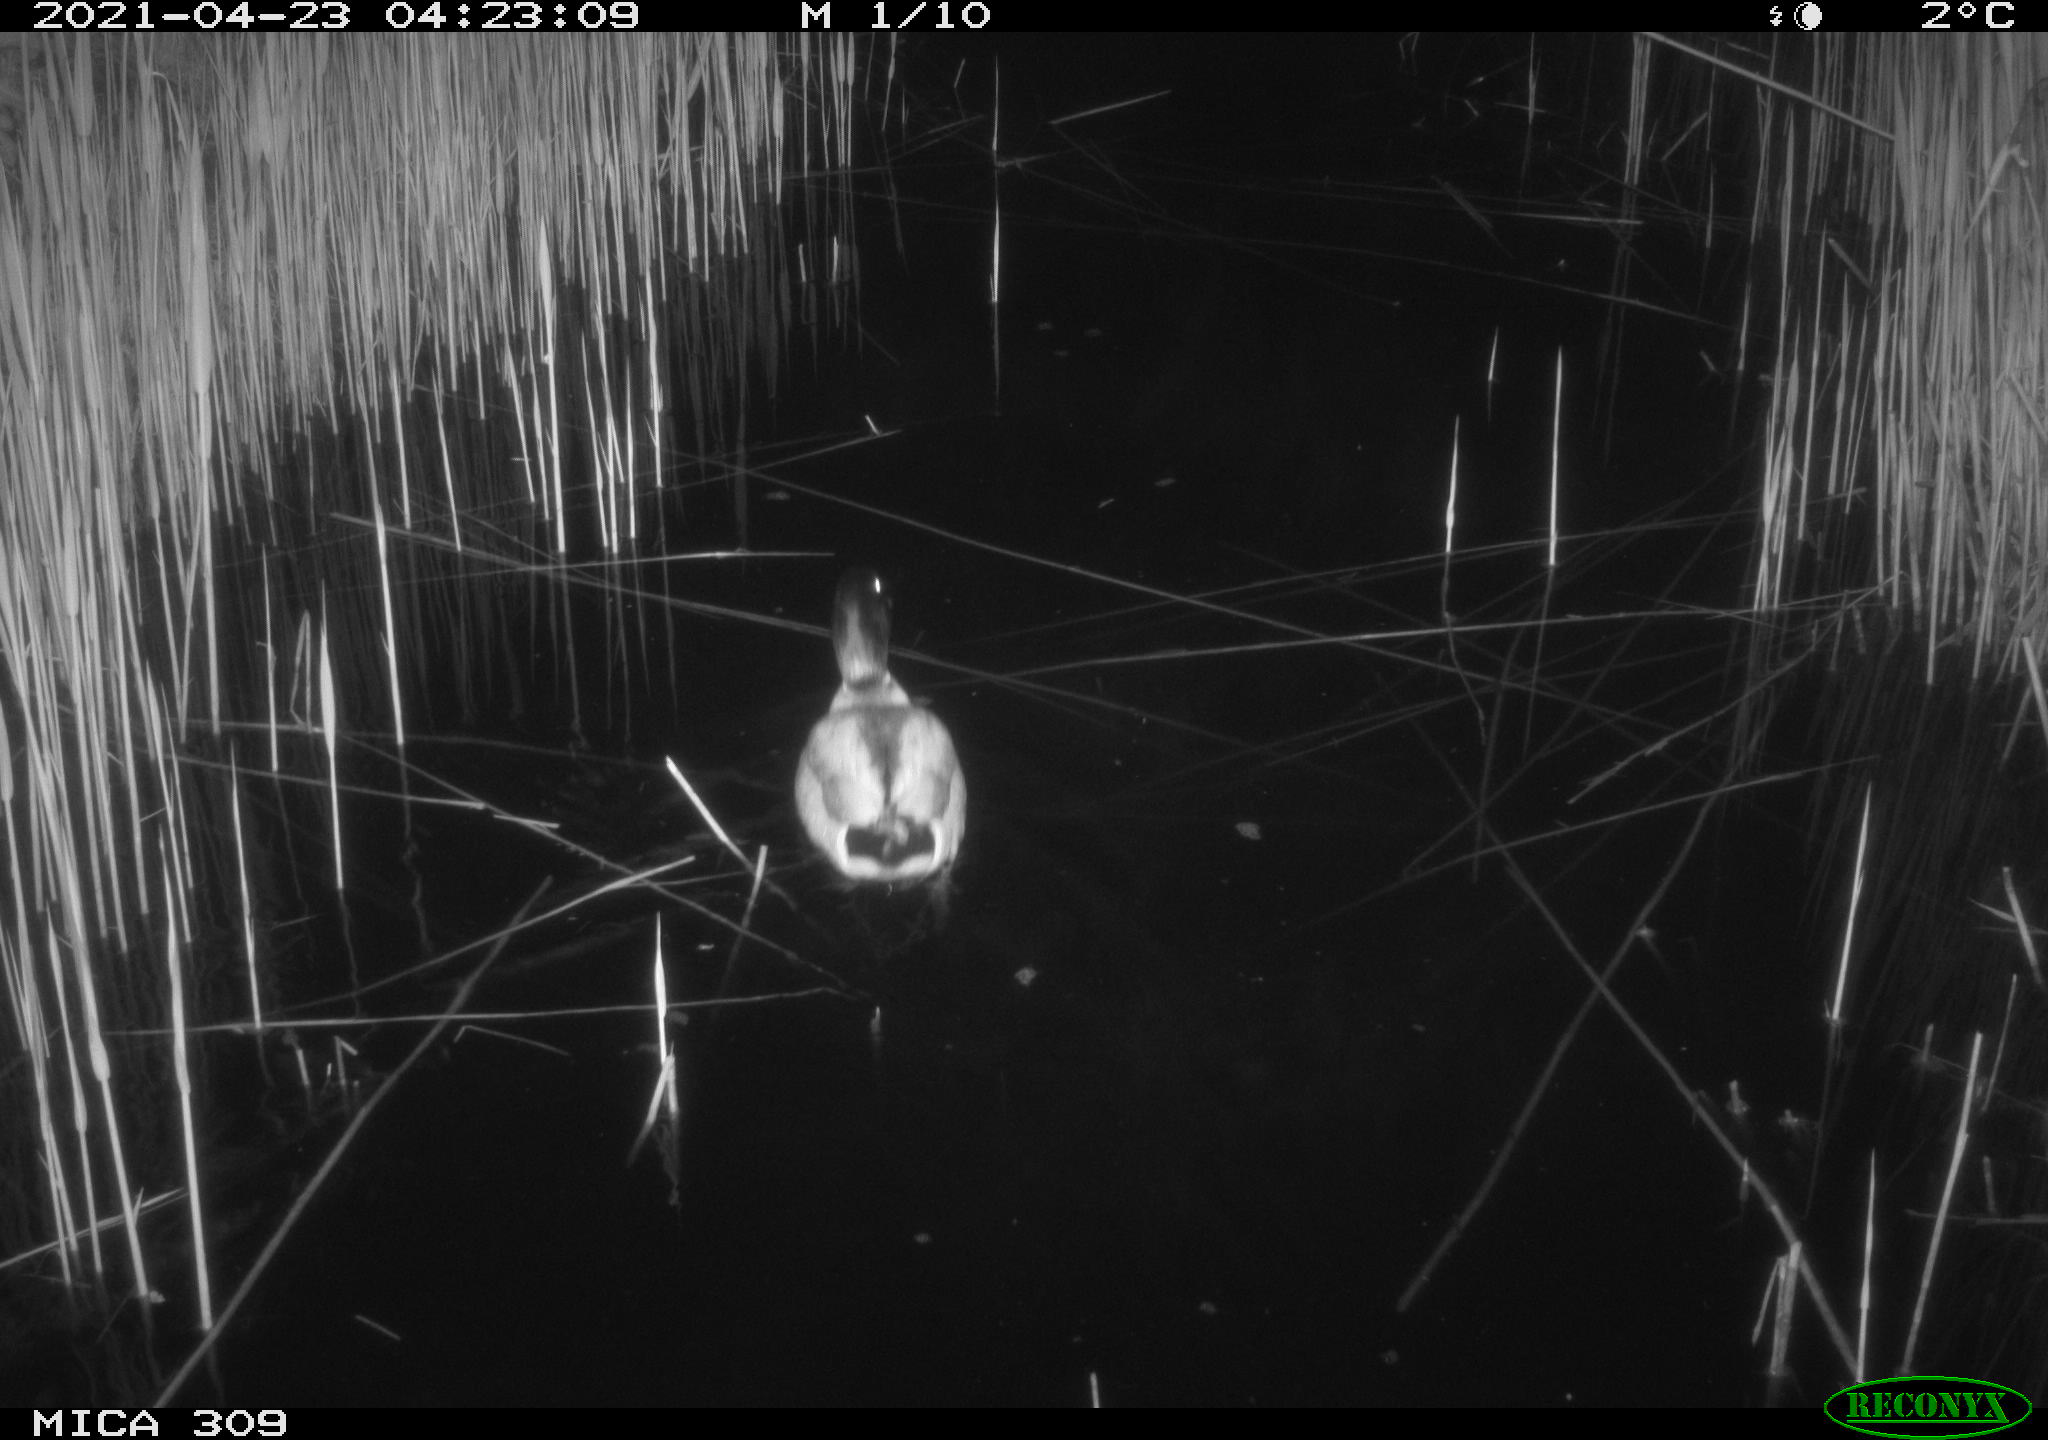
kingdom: Animalia
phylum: Chordata
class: Aves
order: Anseriformes
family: Anatidae
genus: Anas
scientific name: Anas platyrhynchos
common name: Mallard
